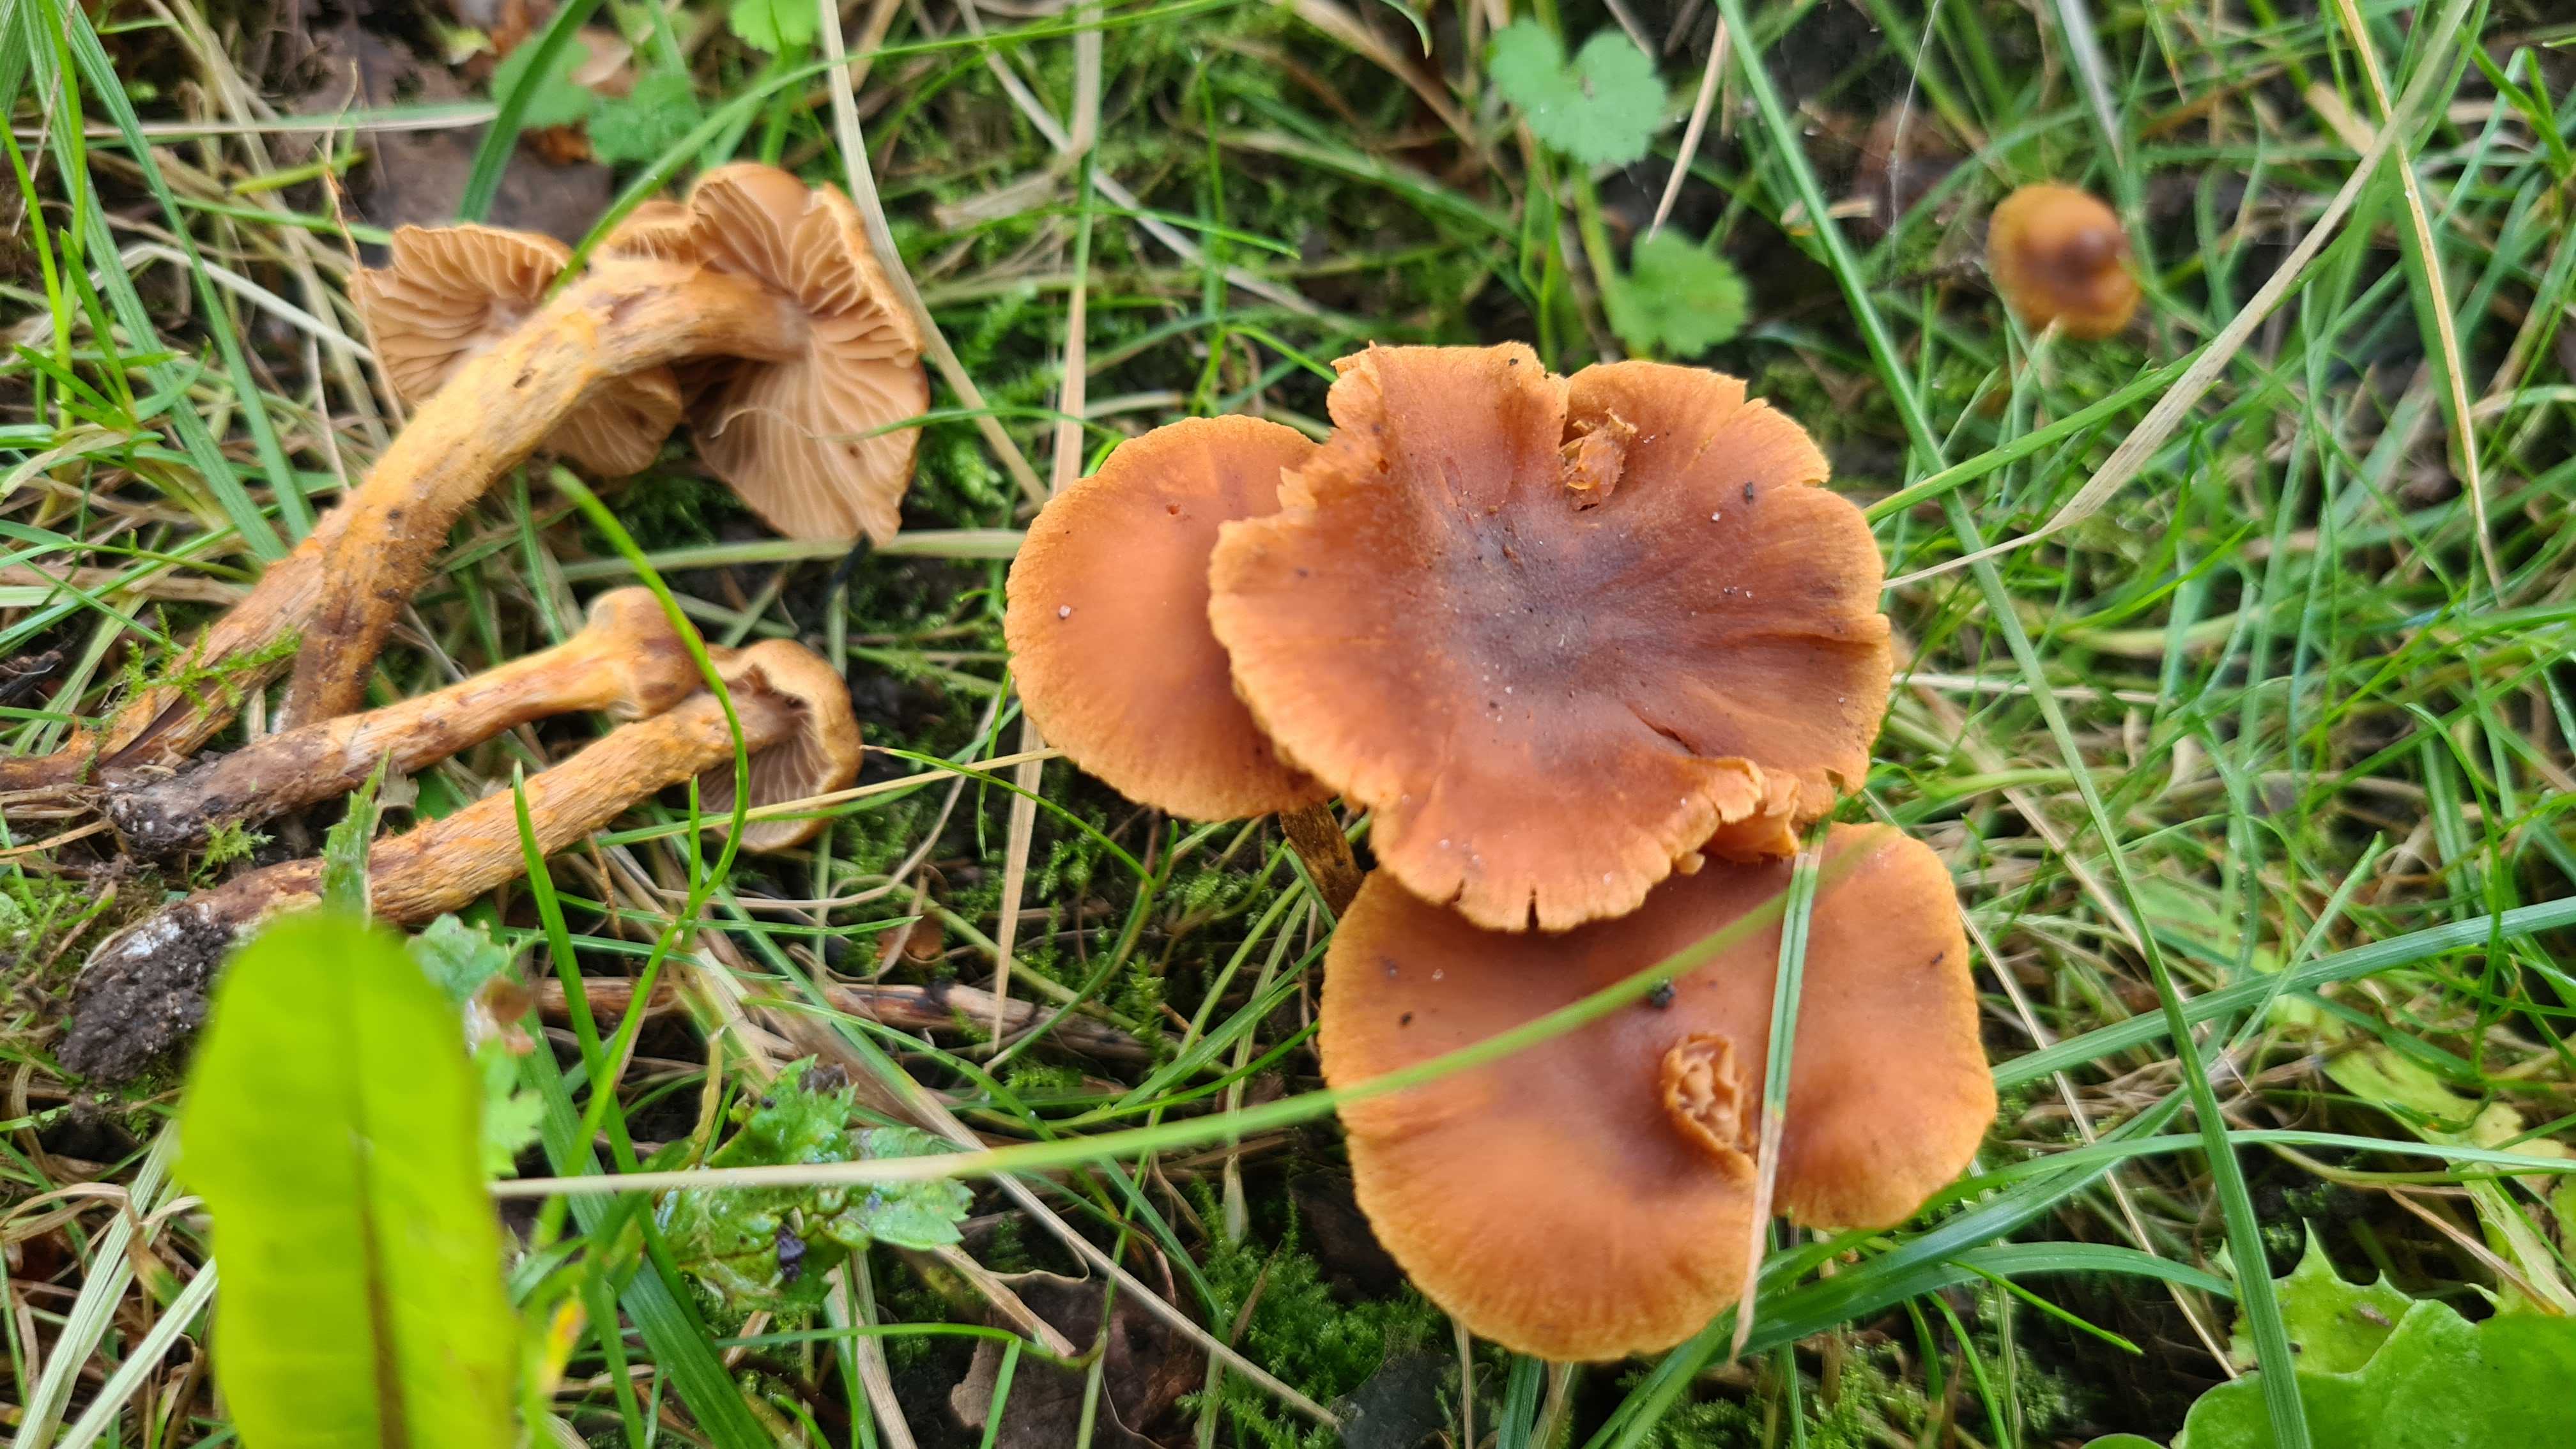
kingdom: Fungi
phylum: Basidiomycota
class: Agaricomycetes
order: Agaricales
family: Cortinariaceae
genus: Cortinarius
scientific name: Cortinarius saniosus
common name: gultrævlet slørhat
